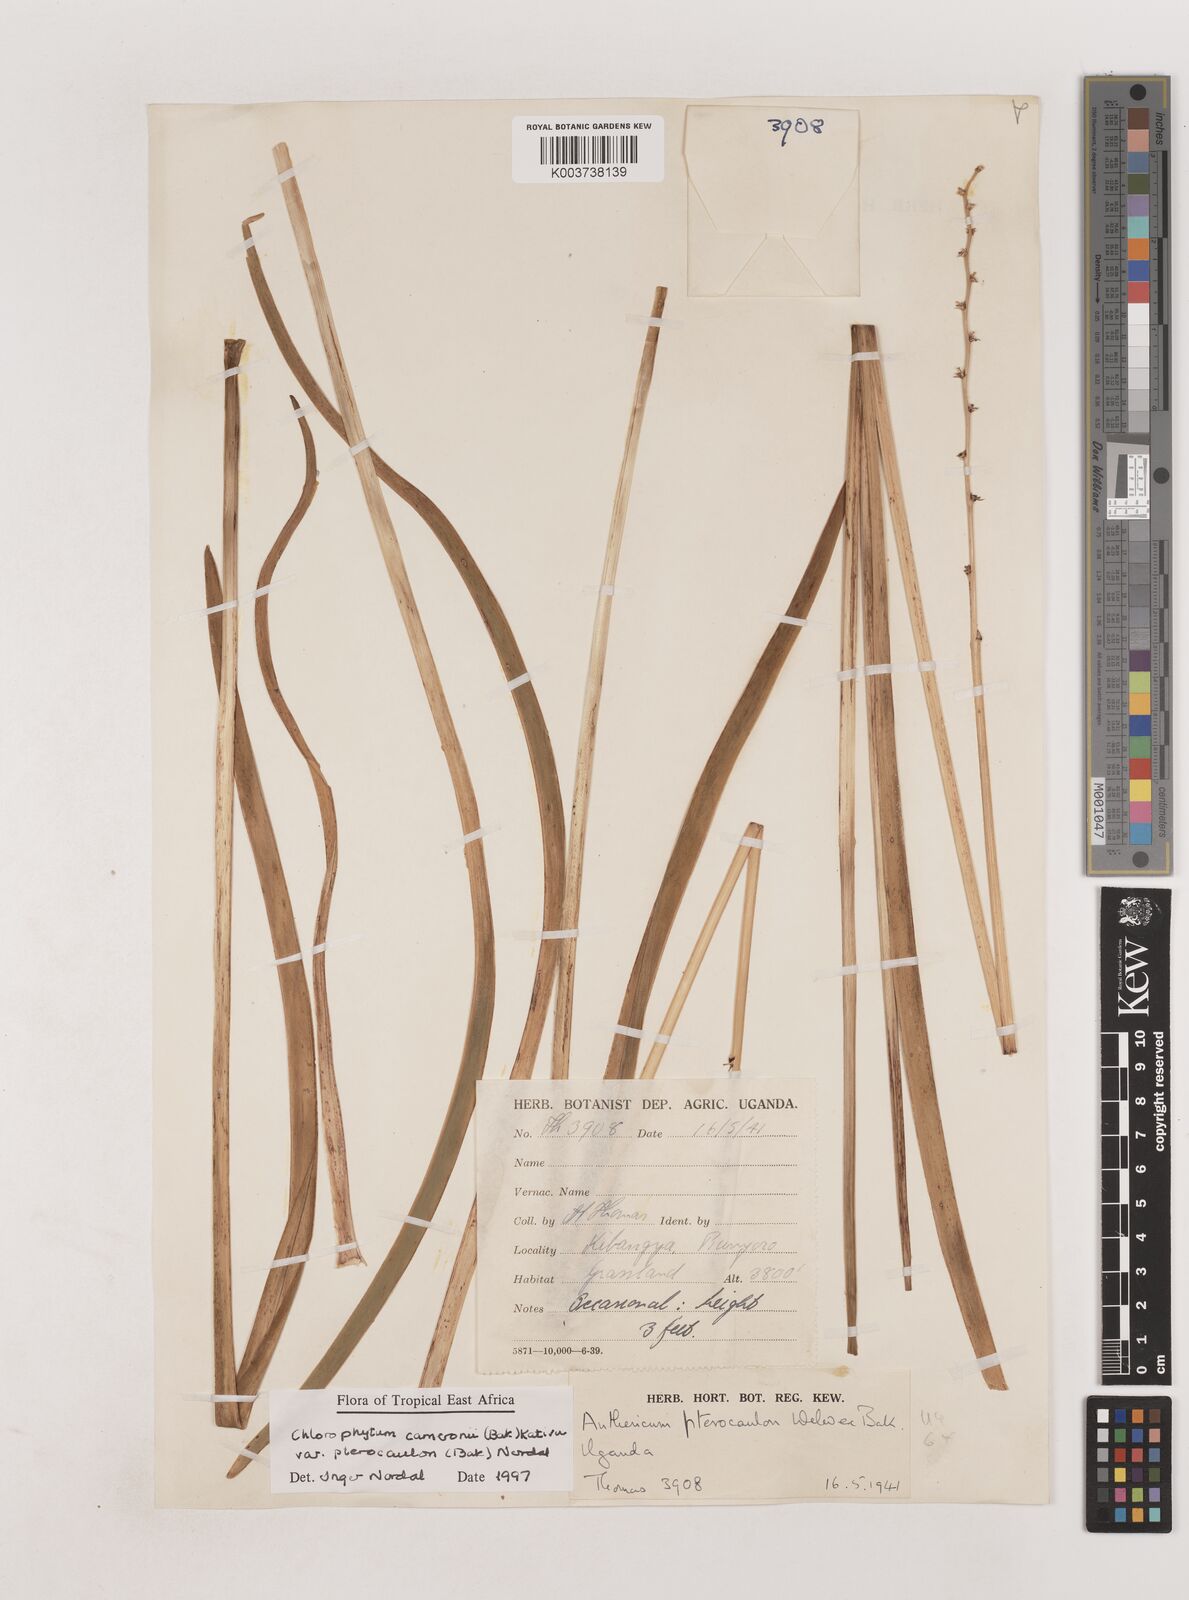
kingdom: Plantae
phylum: Tracheophyta
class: Liliopsida
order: Asparagales
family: Asparagaceae
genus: Chlorophytum
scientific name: Chlorophytum cameronii
